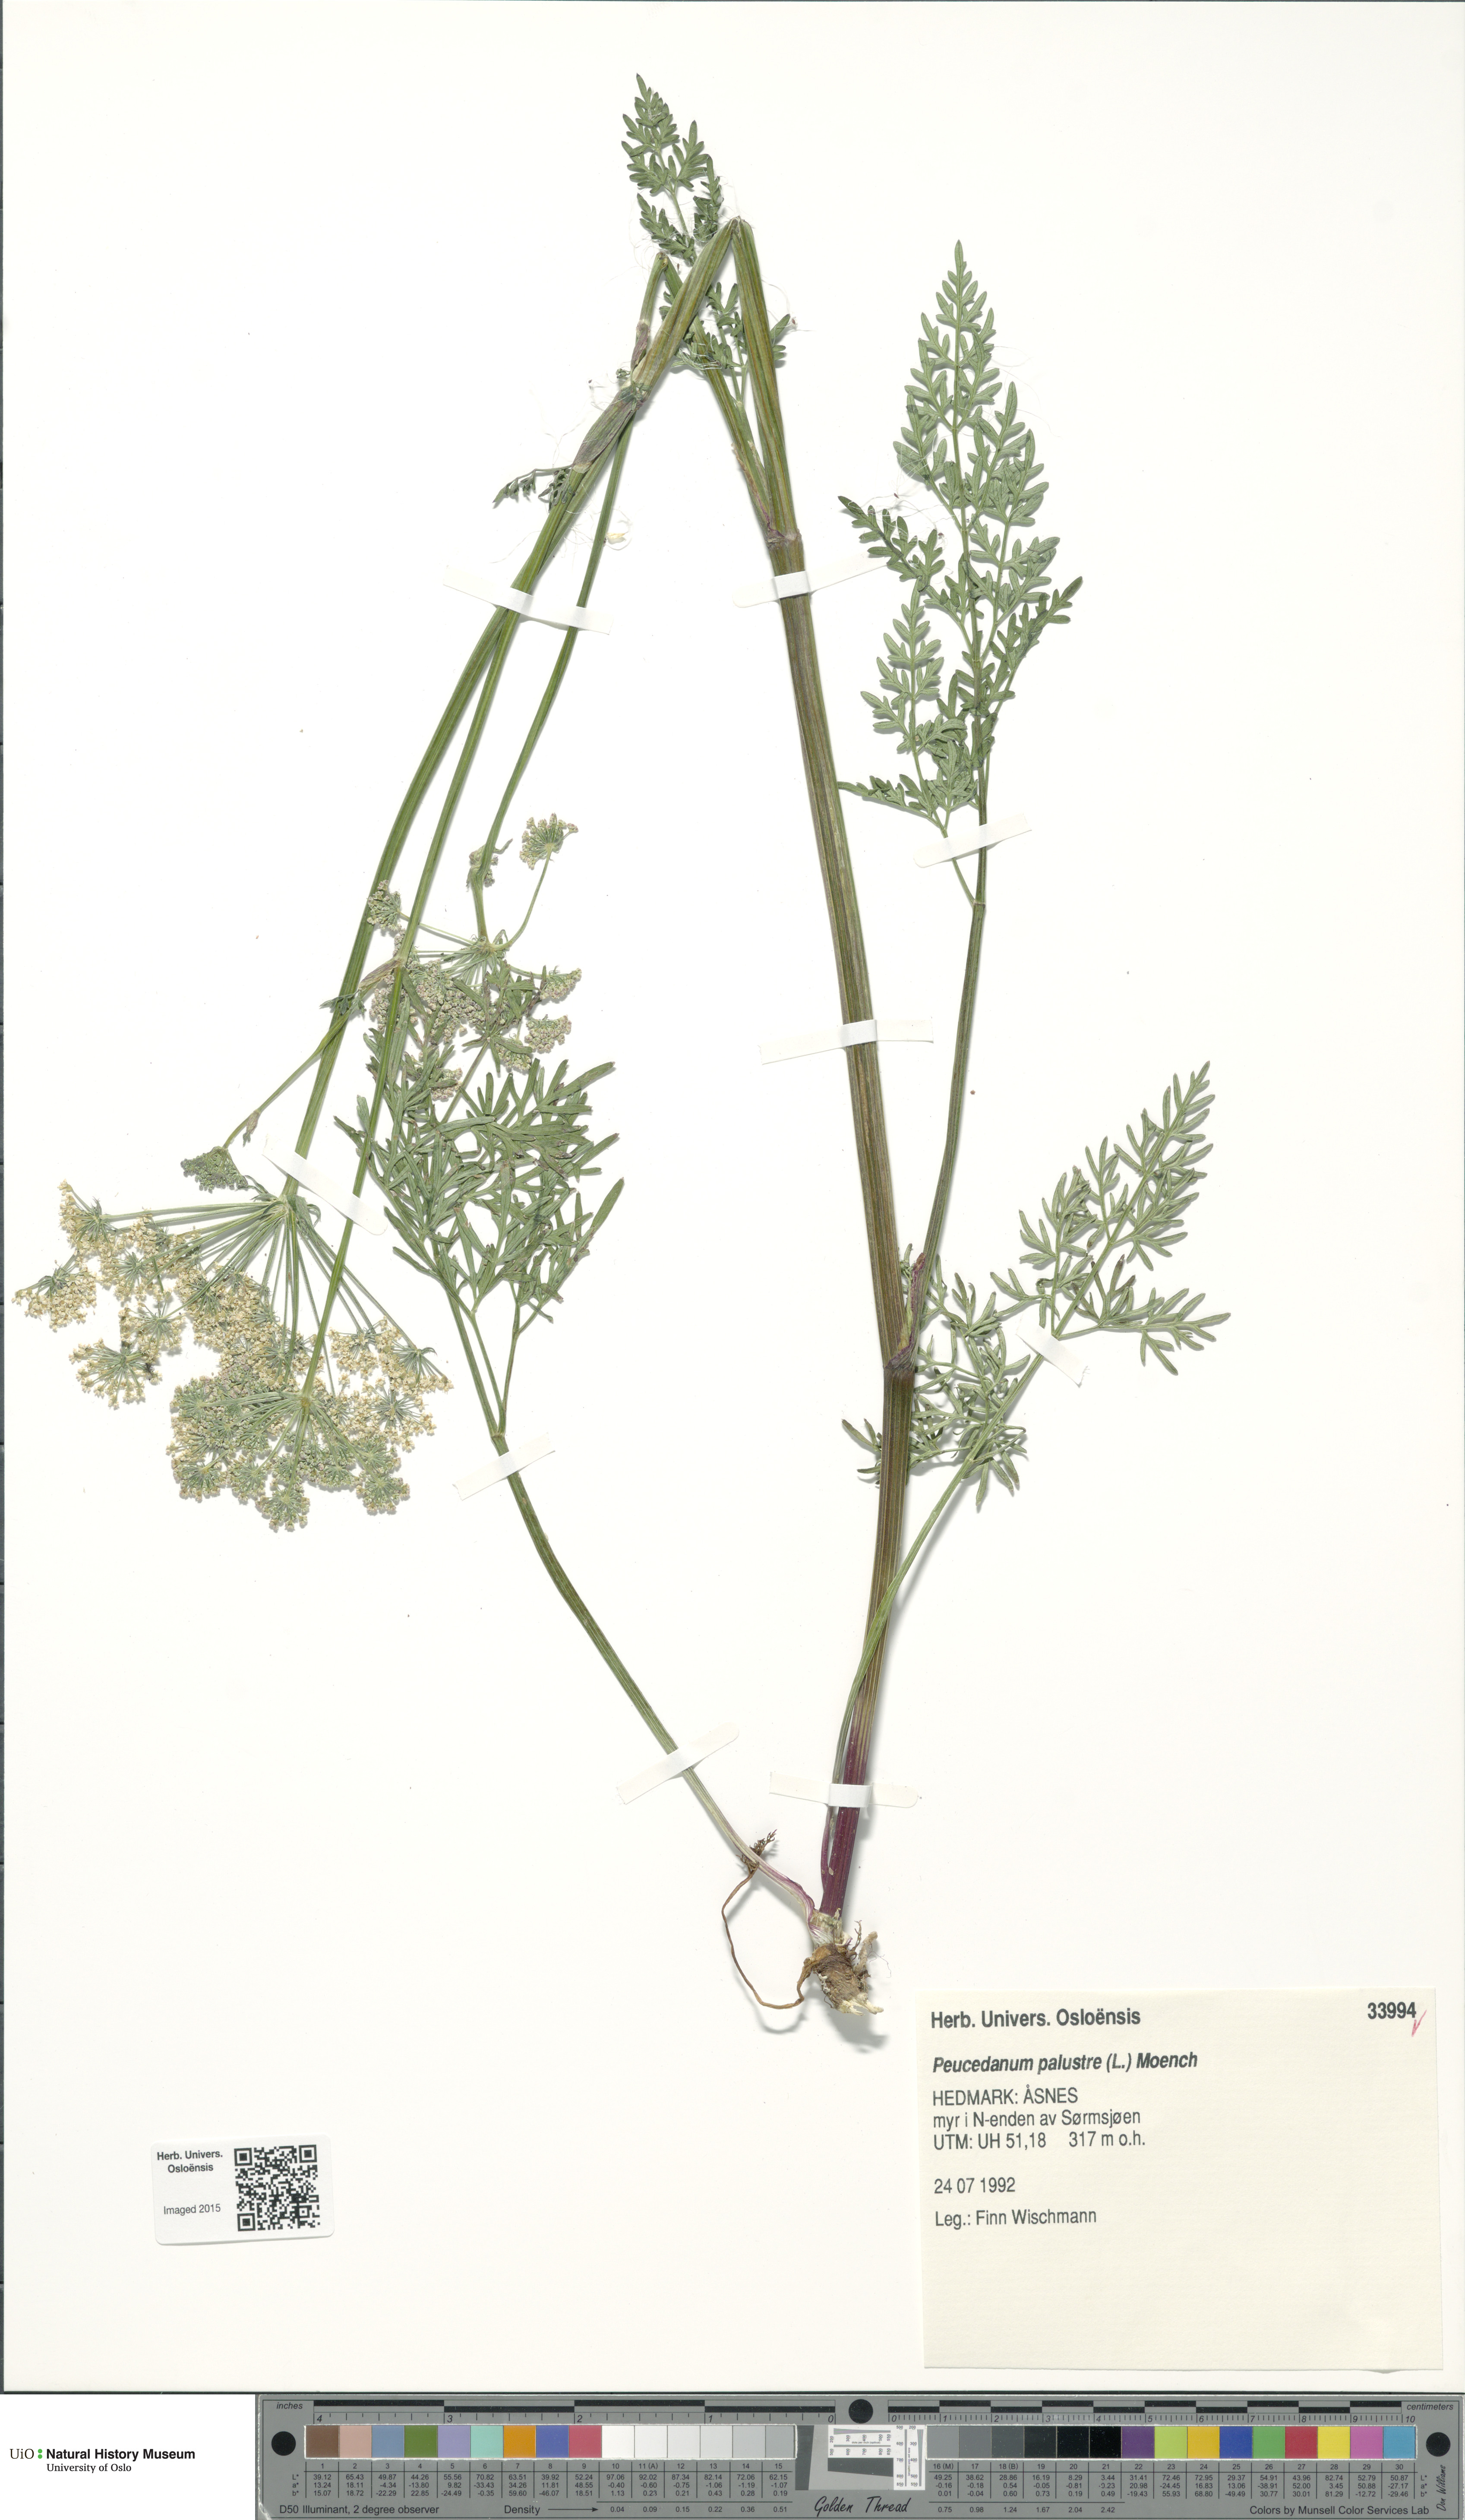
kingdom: Plantae
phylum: Tracheophyta
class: Magnoliopsida
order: Apiales
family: Apiaceae
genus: Thysselinum
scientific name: Thysselinum palustre
